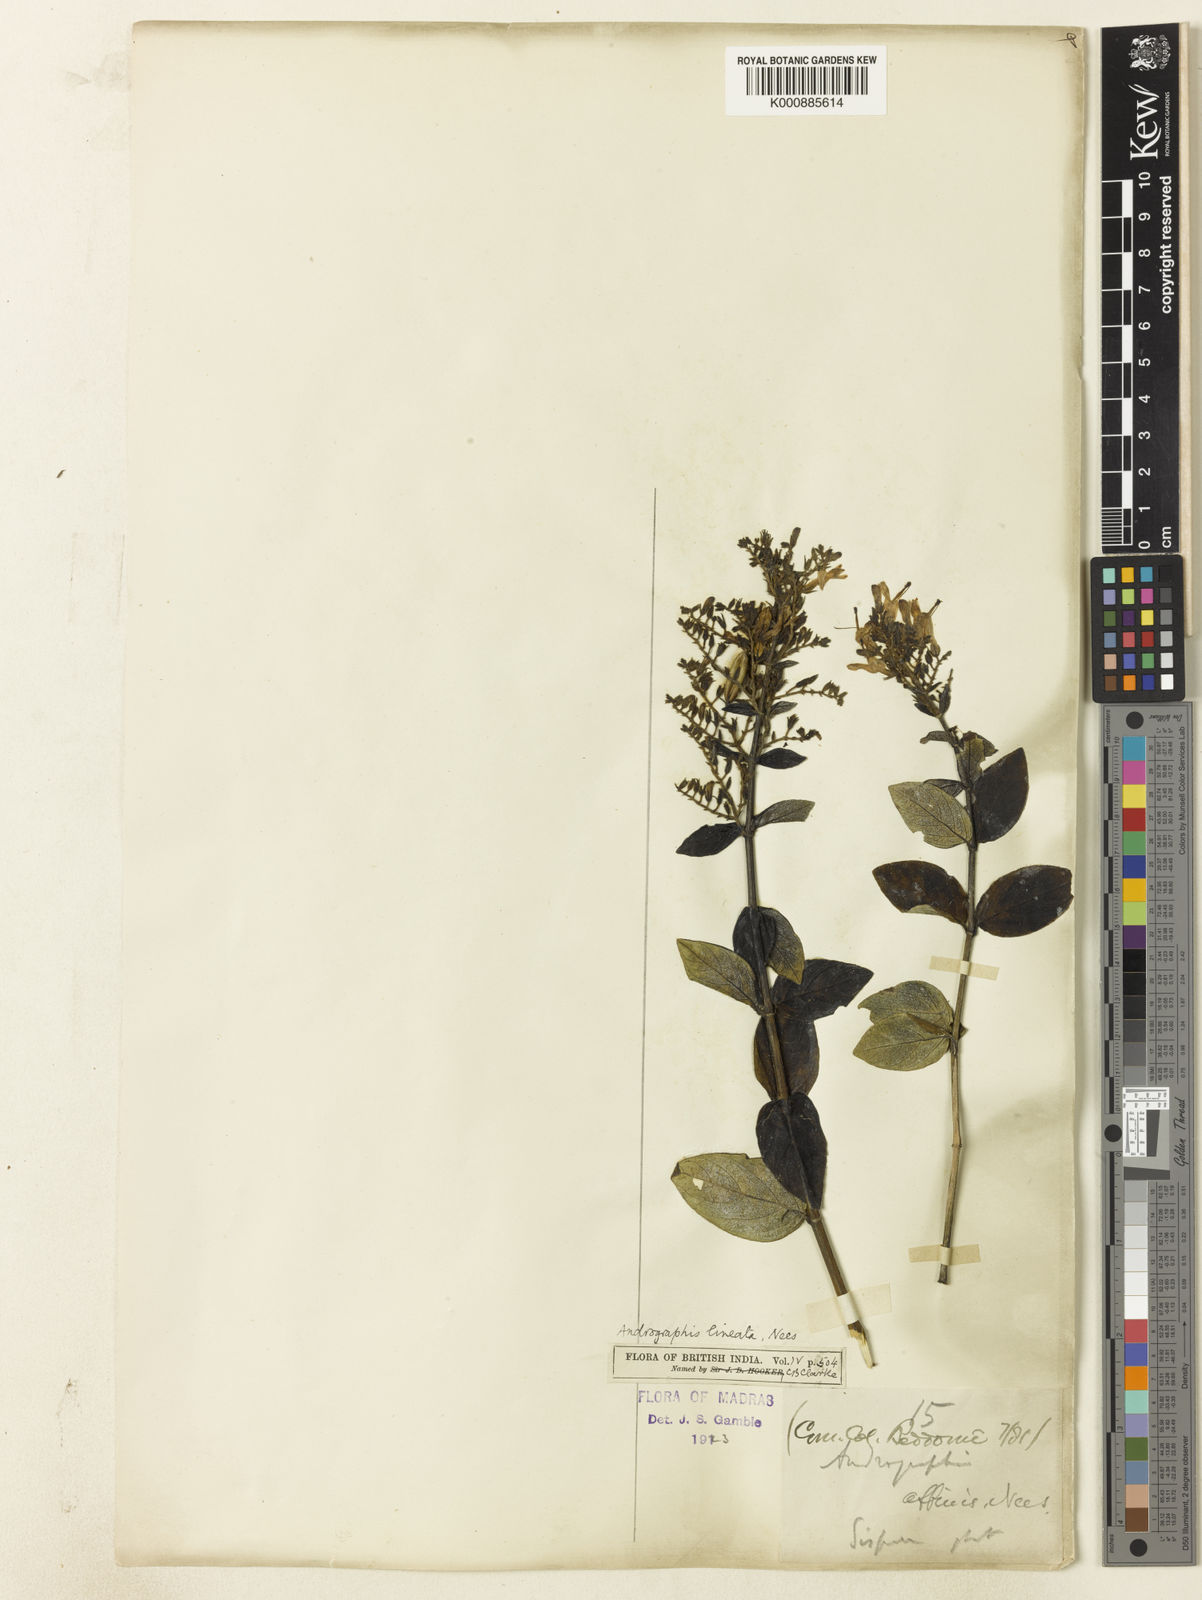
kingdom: Plantae
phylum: Tracheophyta
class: Magnoliopsida
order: Lamiales
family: Acanthaceae
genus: Andrographis
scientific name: Andrographis lineata
